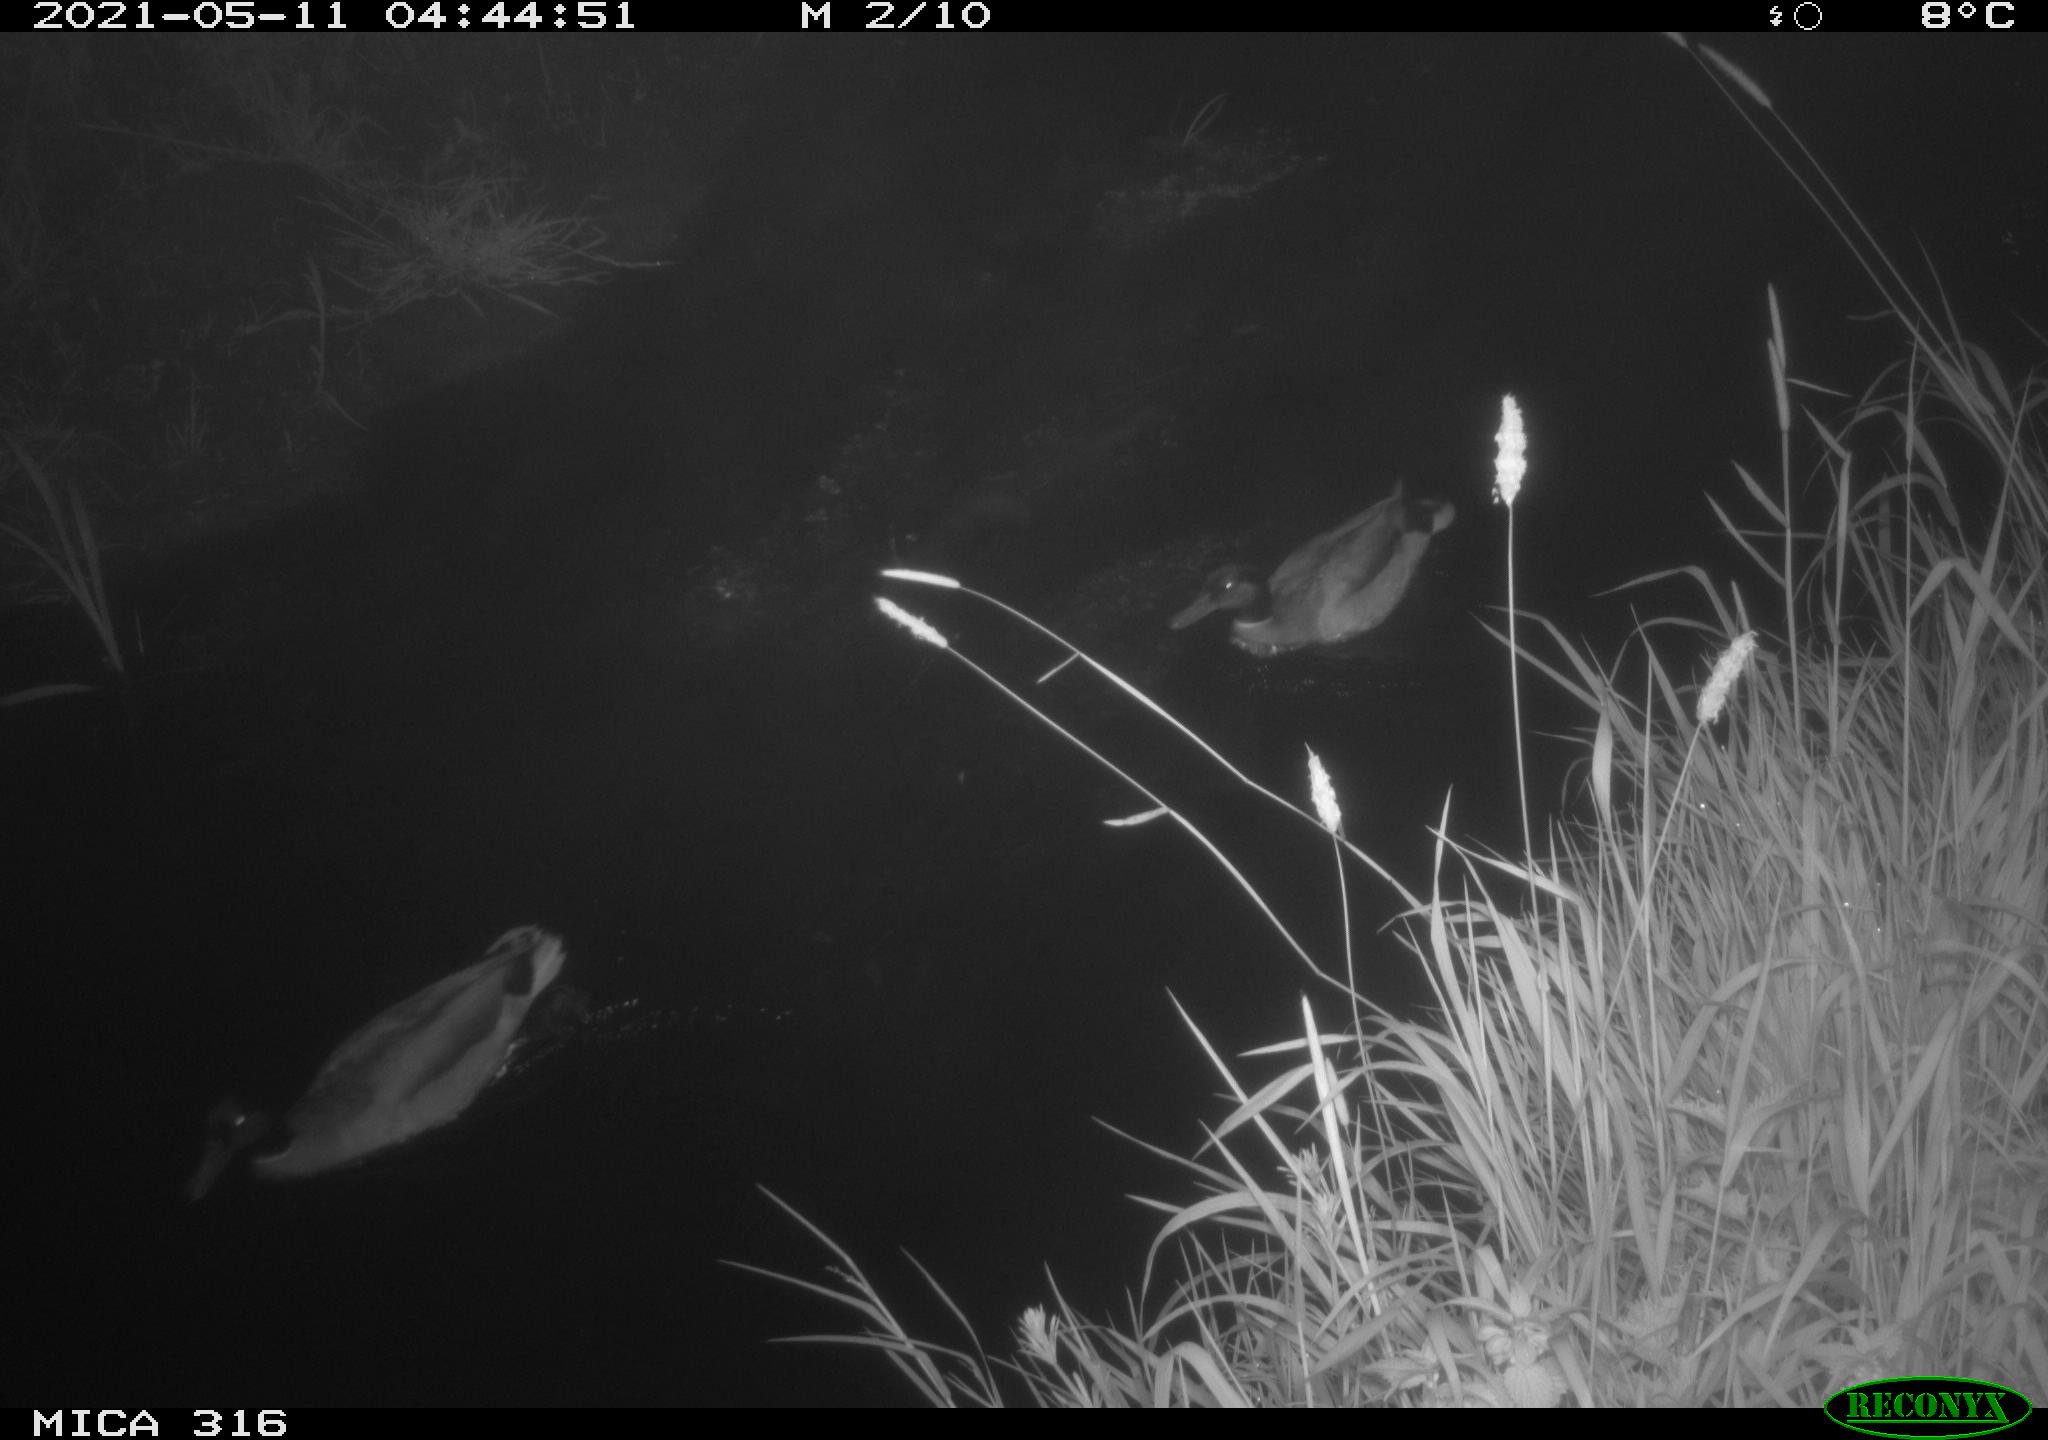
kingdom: Animalia
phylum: Chordata
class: Aves
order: Anseriformes
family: Anatidae
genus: Anas
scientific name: Anas platyrhynchos
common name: Mallard
